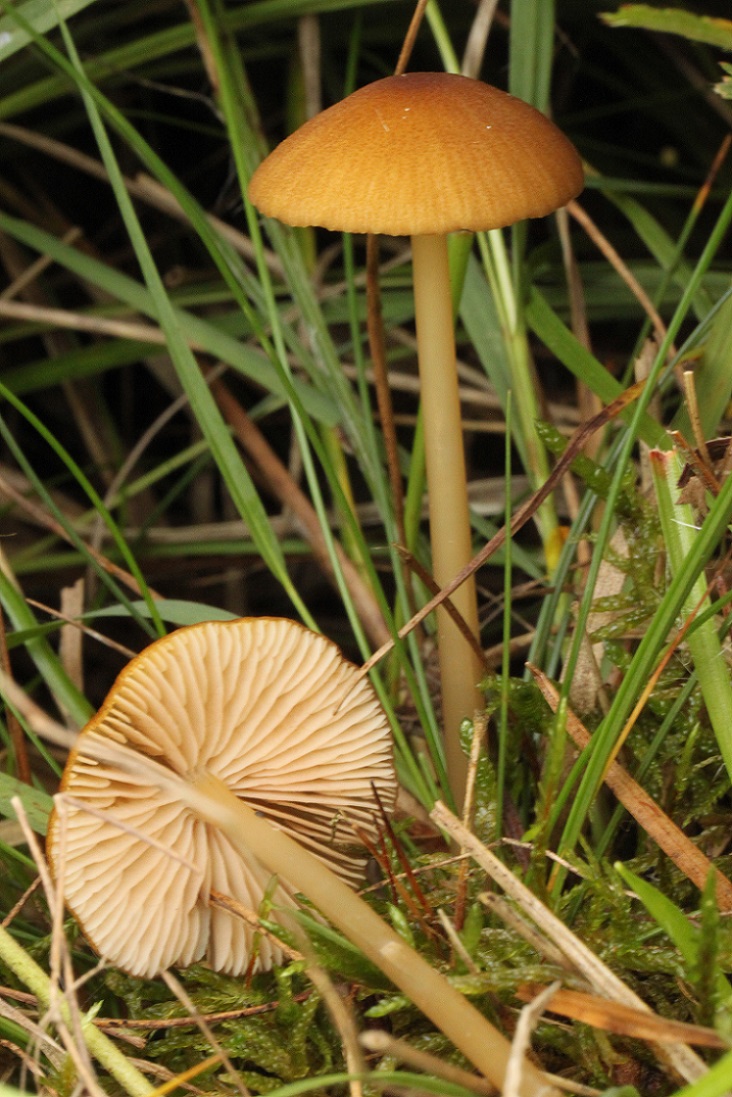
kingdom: Fungi
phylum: Basidiomycota
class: Agaricomycetes
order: Agaricales
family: Entolomataceae
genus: Entoloma
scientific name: Entoloma formosum
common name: brungul rødblad
